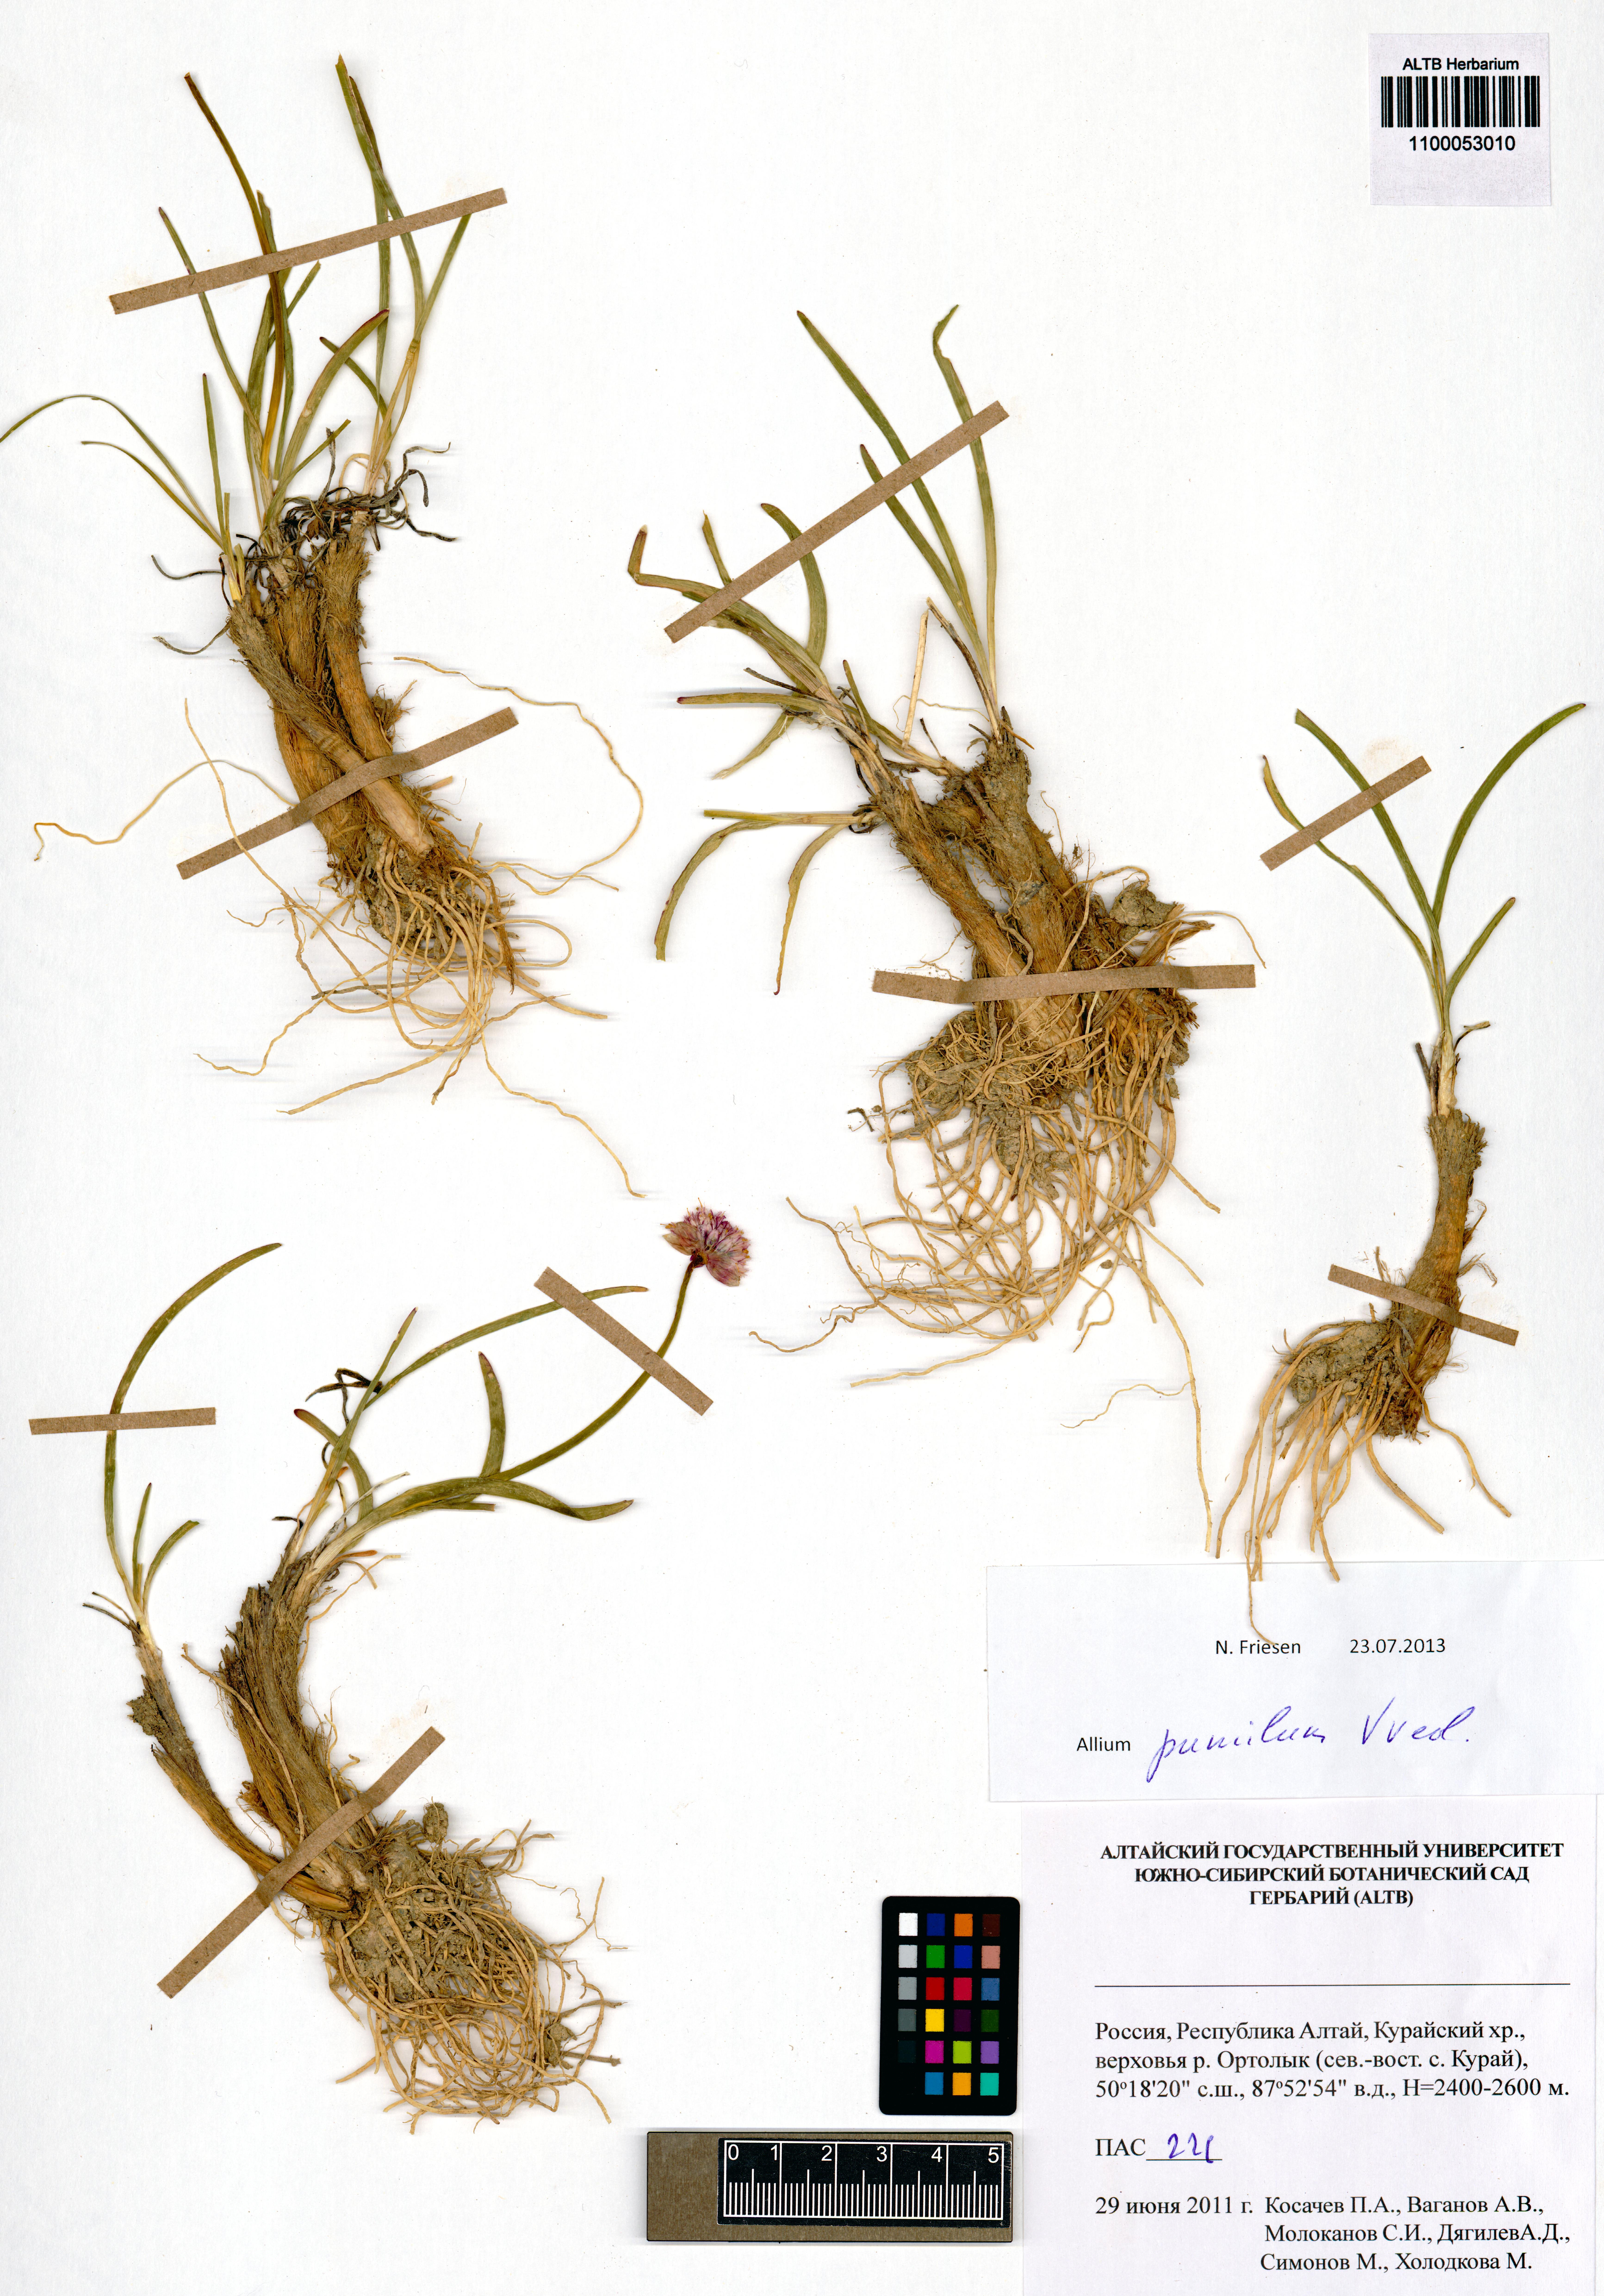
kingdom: Plantae
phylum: Tracheophyta
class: Liliopsida
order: Asparagales
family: Amaryllidaceae
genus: Allium
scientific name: Allium pumilum
